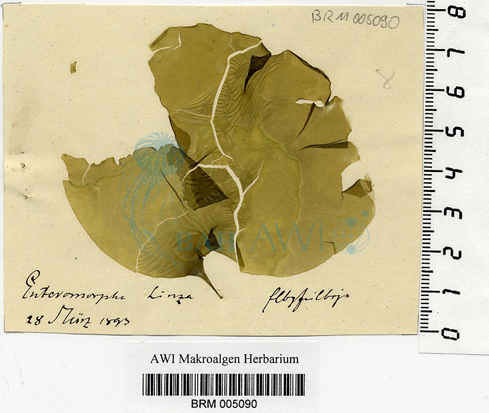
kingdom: Plantae
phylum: Chlorophyta
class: Ulvophyceae
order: Ulvales
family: Ulvaceae
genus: Ulva
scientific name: Ulva linza
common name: Green string lettuce
